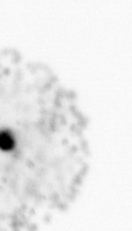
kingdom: Chromista
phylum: Ochrophyta
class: Bacillariophyceae
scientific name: Bacillariophyceae
